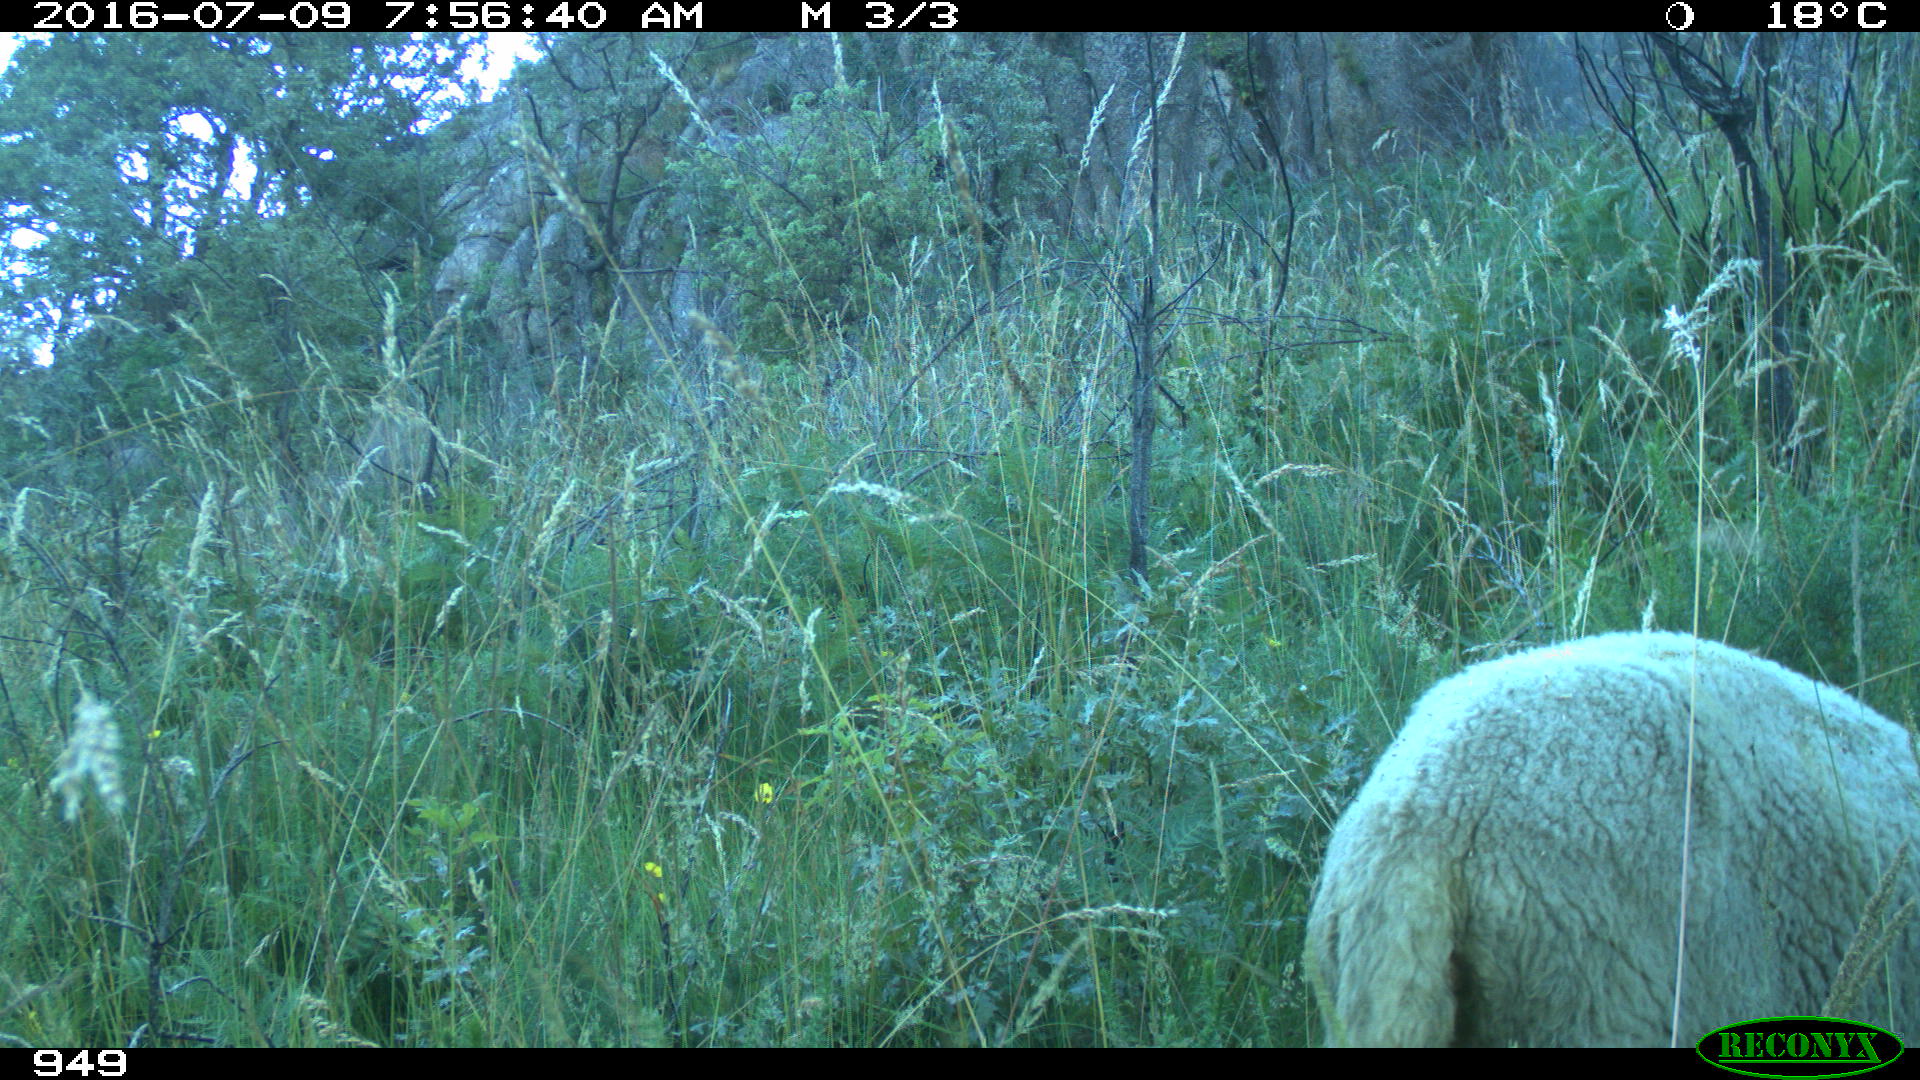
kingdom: Animalia
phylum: Chordata
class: Mammalia
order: Artiodactyla
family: Bovidae
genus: Ovis
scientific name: Ovis aries
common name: Domestic sheep
